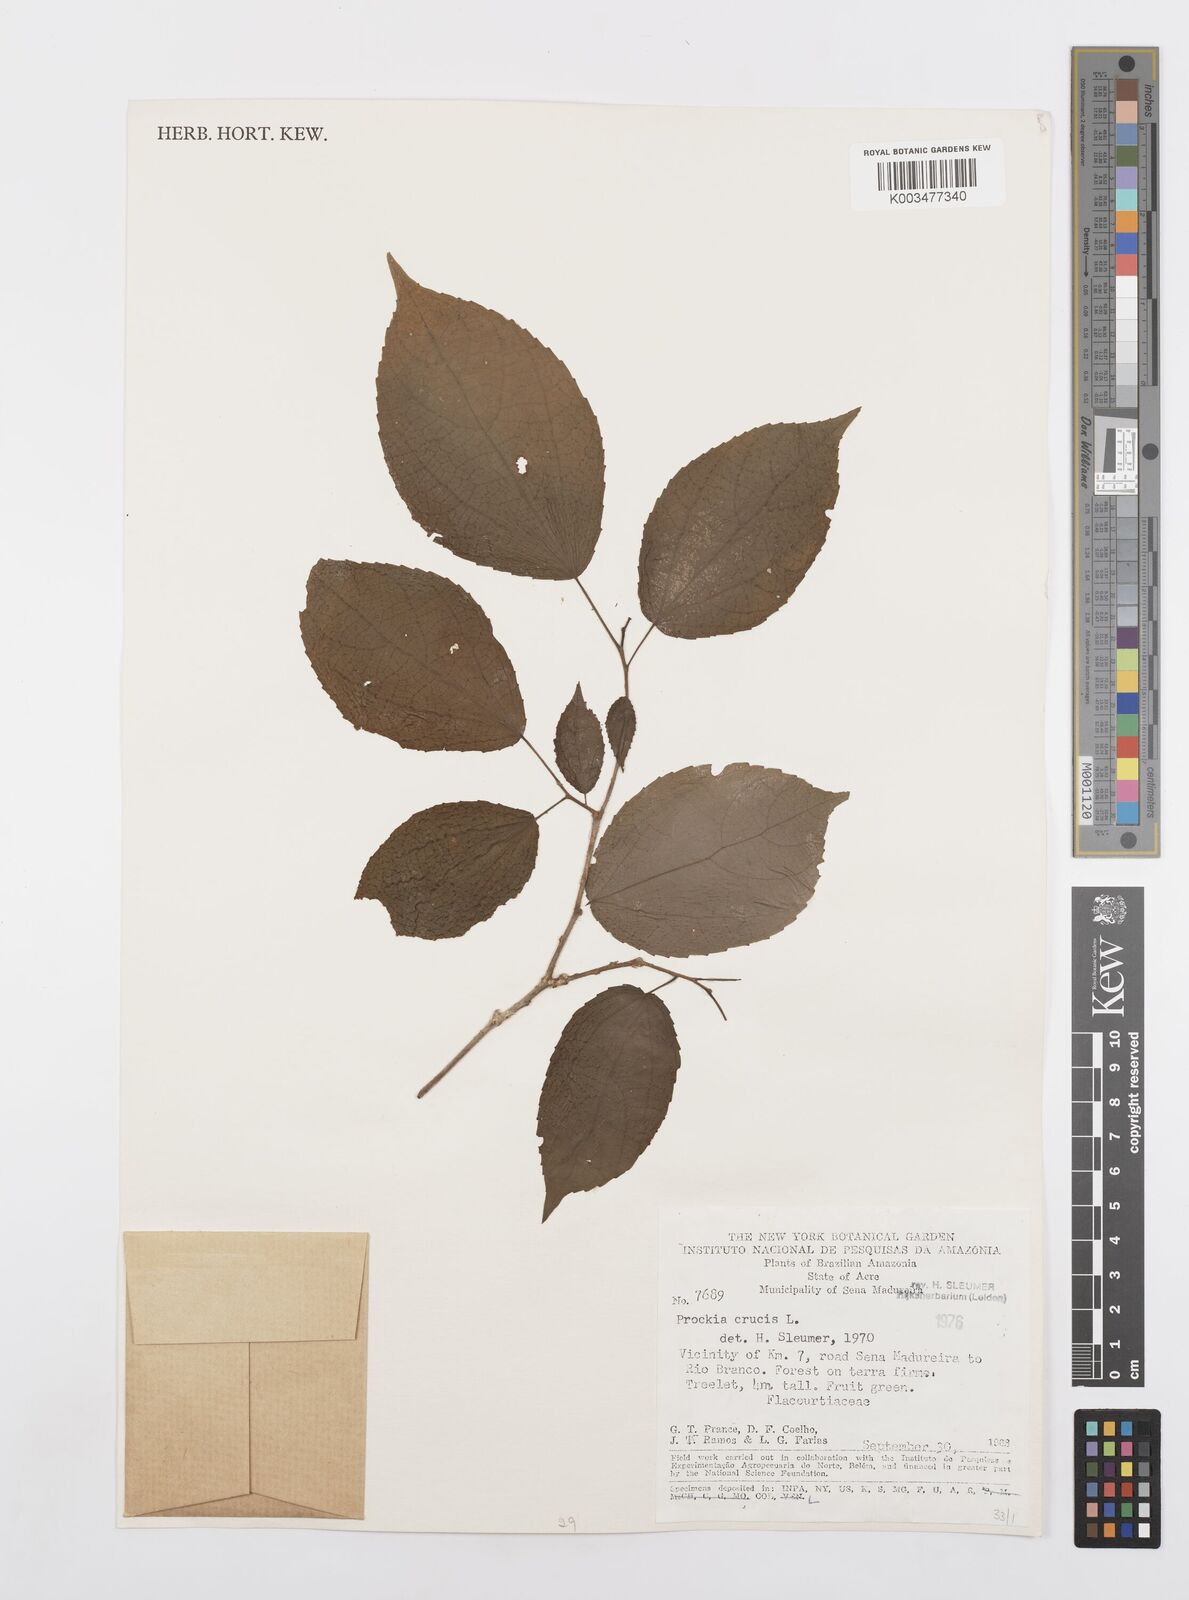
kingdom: Plantae
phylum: Tracheophyta
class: Magnoliopsida
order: Malpighiales
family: Salicaceae
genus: Prockia
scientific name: Prockia crucis
